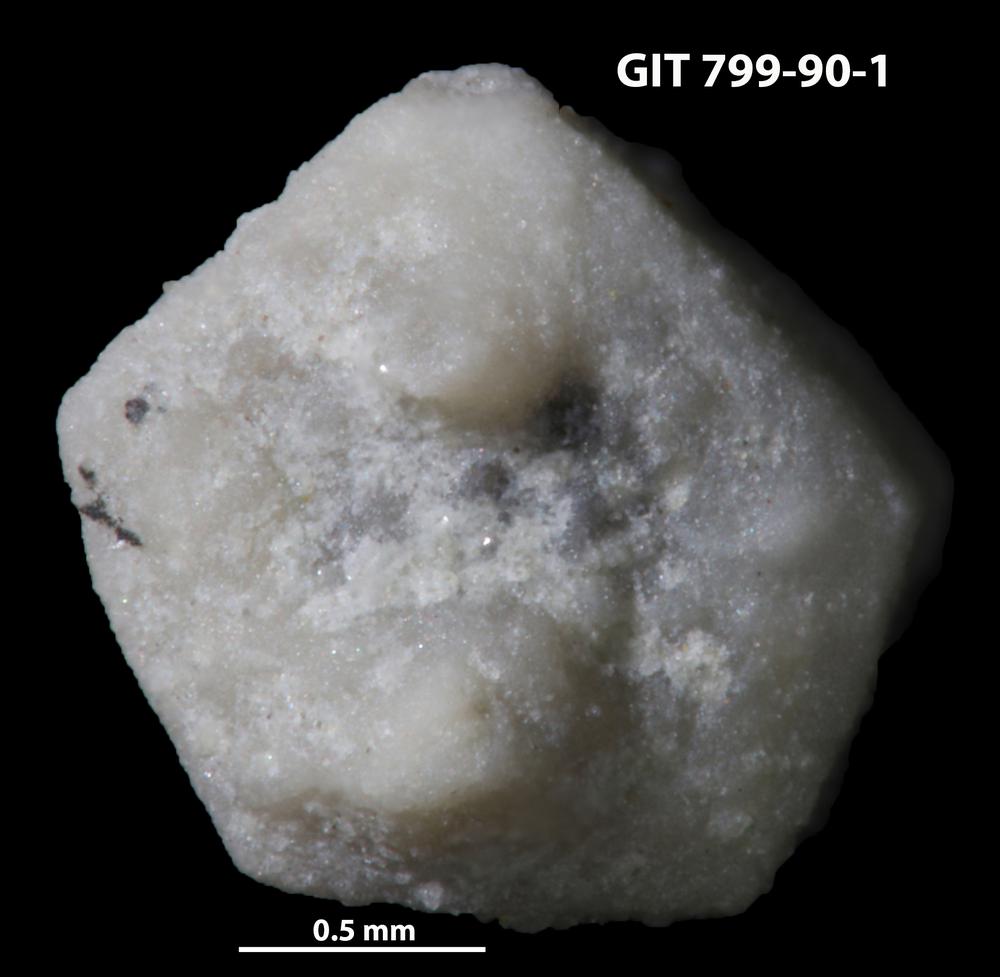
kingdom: Animalia
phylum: Echinodermata
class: Echinoidea
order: Bothriocidaroida
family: Bothriocidaridae
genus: Bothriocidaris
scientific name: Bothriocidaris
